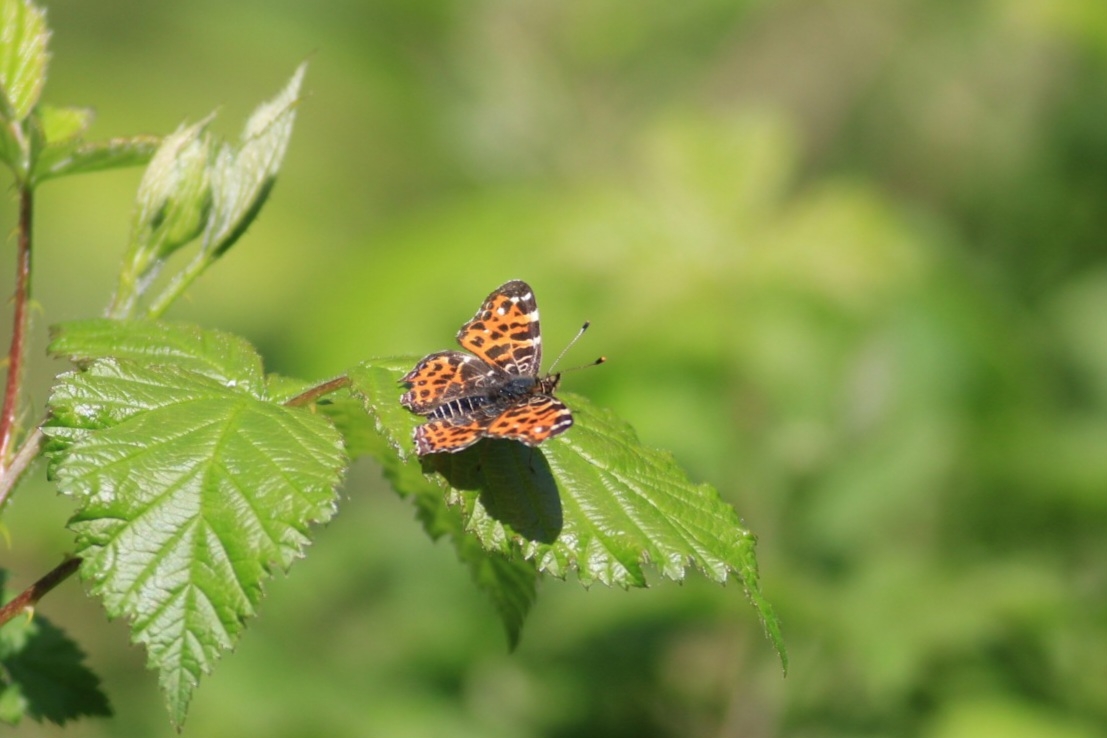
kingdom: Animalia
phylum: Arthropoda
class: Insecta
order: Lepidoptera
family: Nymphalidae
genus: Araschnia
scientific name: Araschnia levana
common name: Nældesommerfugl
